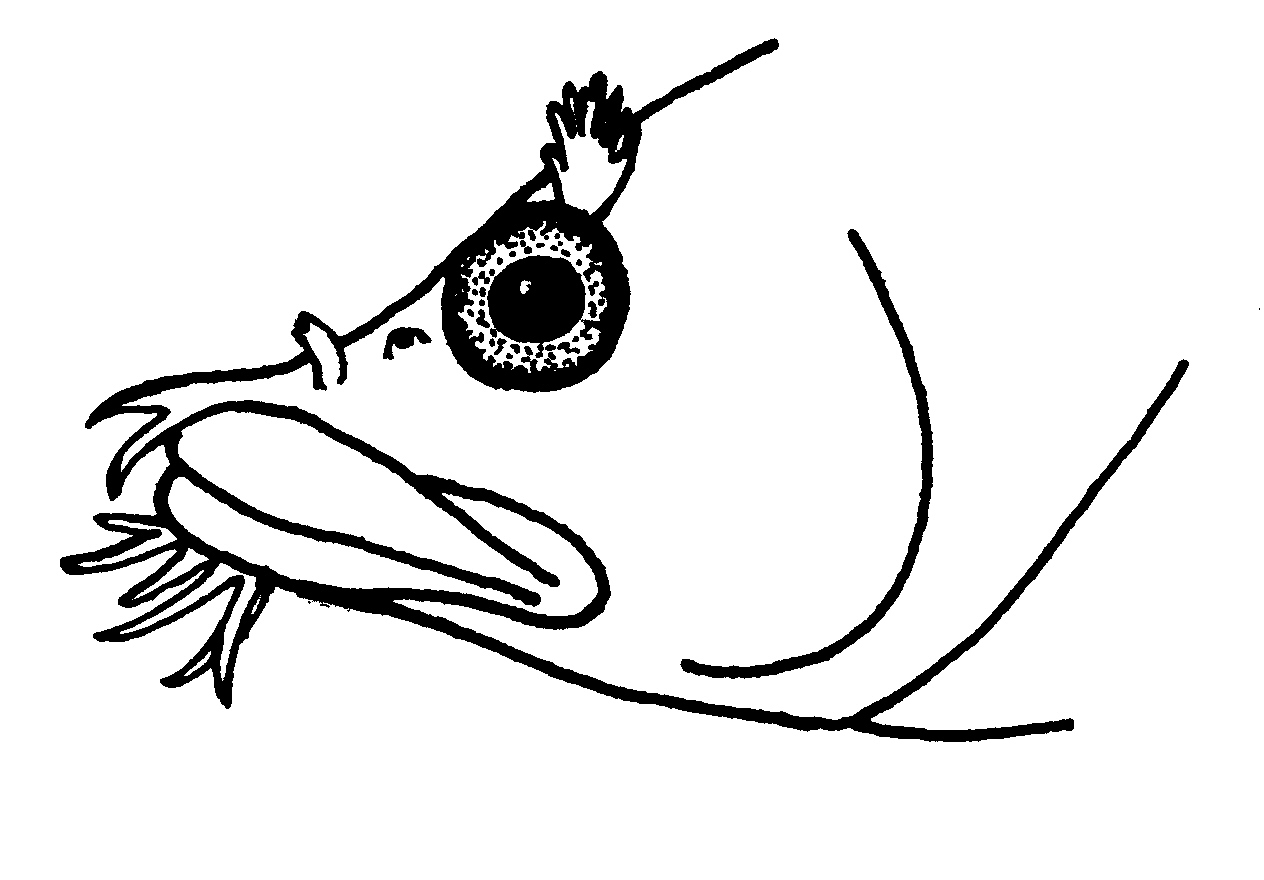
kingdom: Animalia
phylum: Chordata
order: Perciformes
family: Clinidae
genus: Cirrhibarbis
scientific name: Cirrhibarbis capensis
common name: Barbelled klipfish
